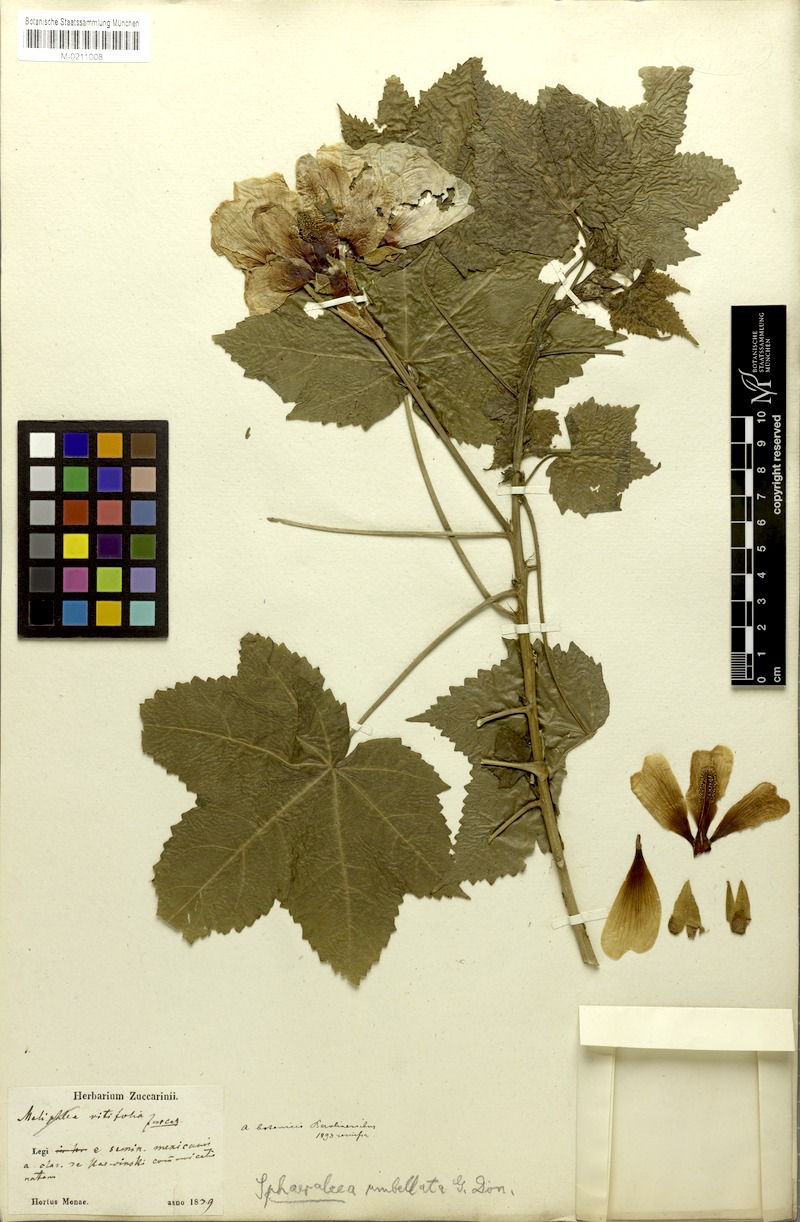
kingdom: Plantae
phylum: Tracheophyta
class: Magnoliopsida
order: Malvales
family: Malvaceae
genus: Phymosia
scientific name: Phymosia rosea
